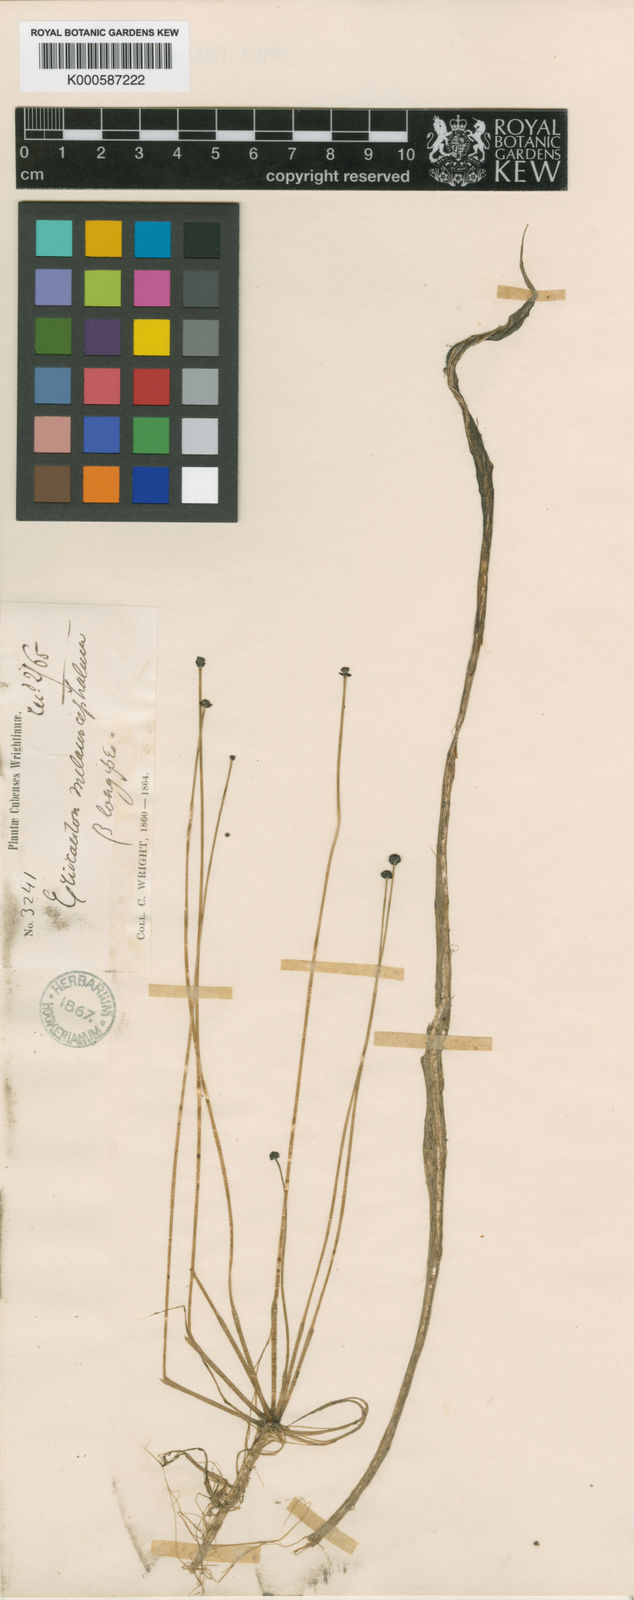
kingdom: Plantae
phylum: Tracheophyta
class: Liliopsida
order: Poales
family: Eriocaulaceae
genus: Eriocaulon
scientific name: Eriocaulon setaceum
